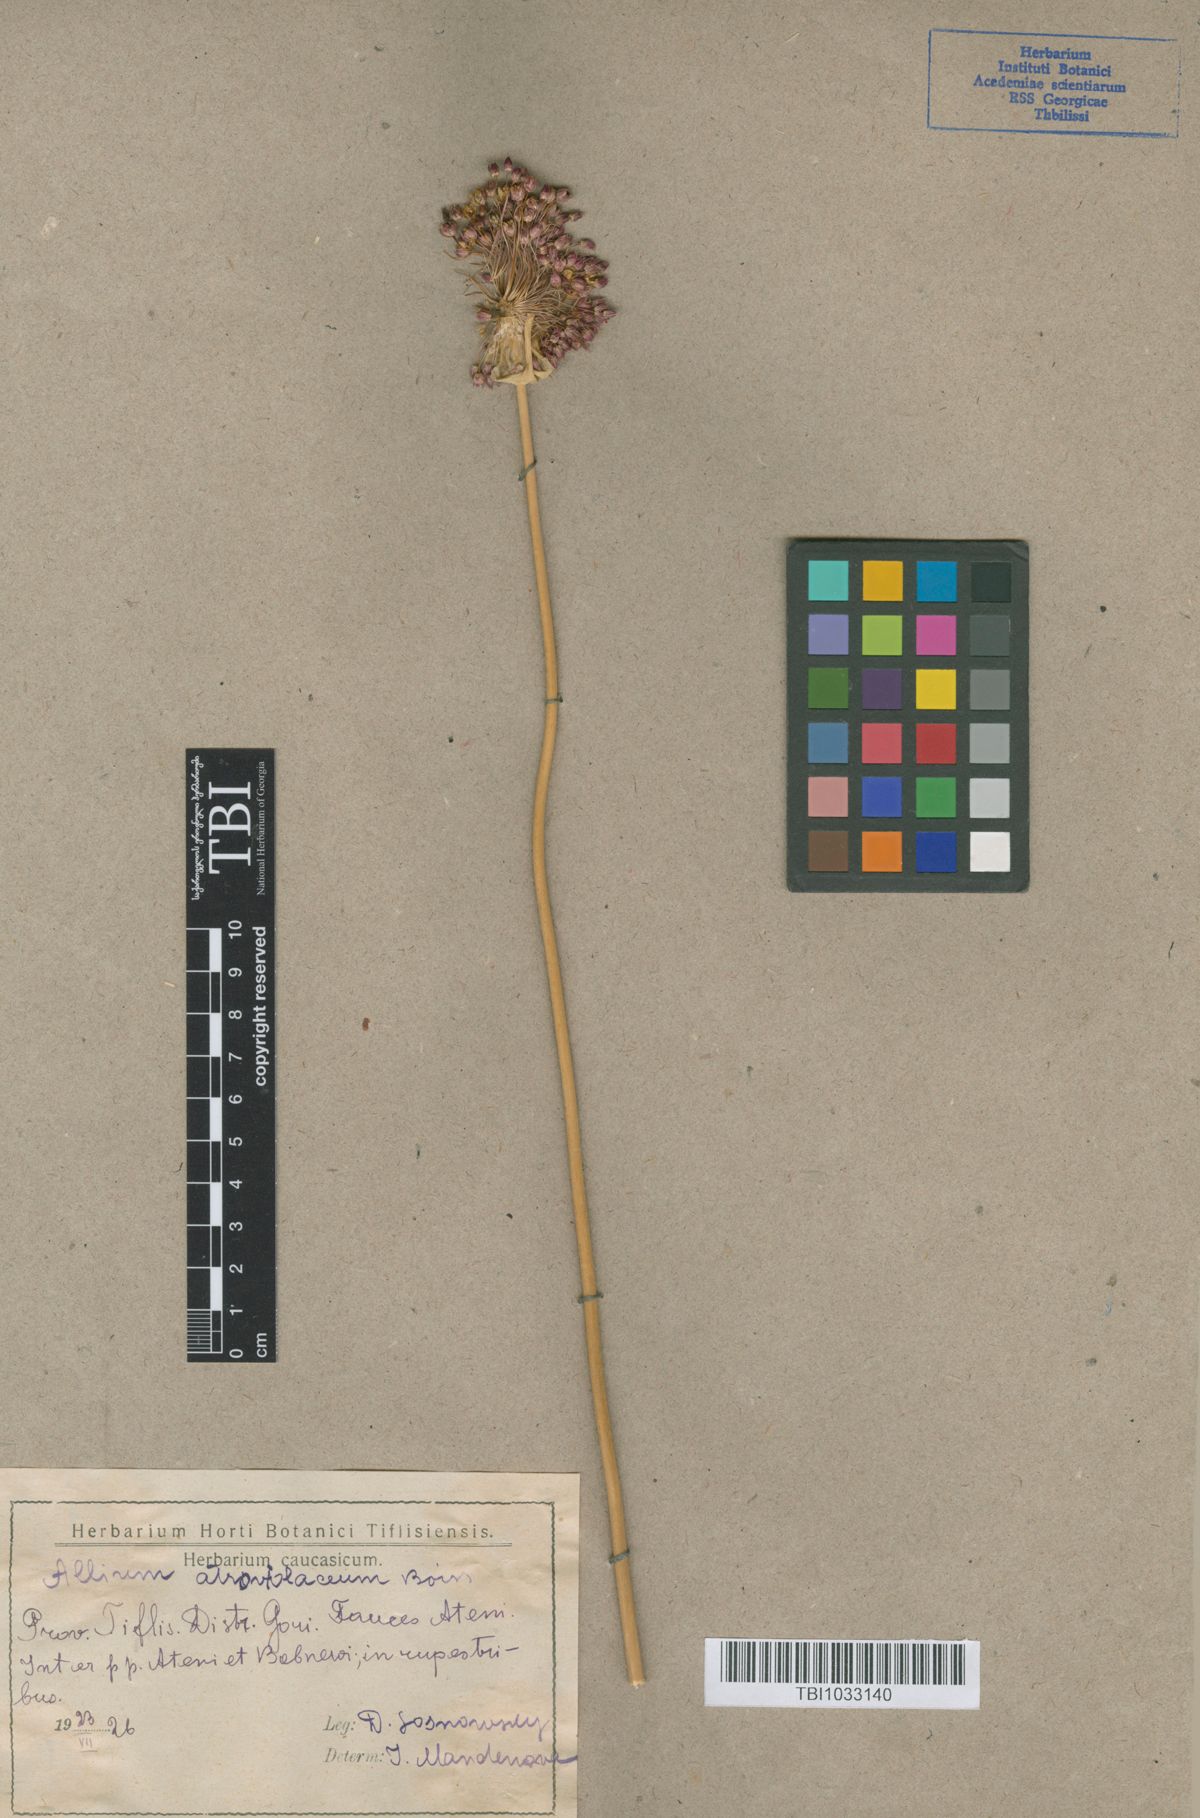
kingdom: Plantae
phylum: Tracheophyta
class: Liliopsida
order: Asparagales
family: Amaryllidaceae
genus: Allium
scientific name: Allium atroviolaceum
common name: Broadleaf wild leek
